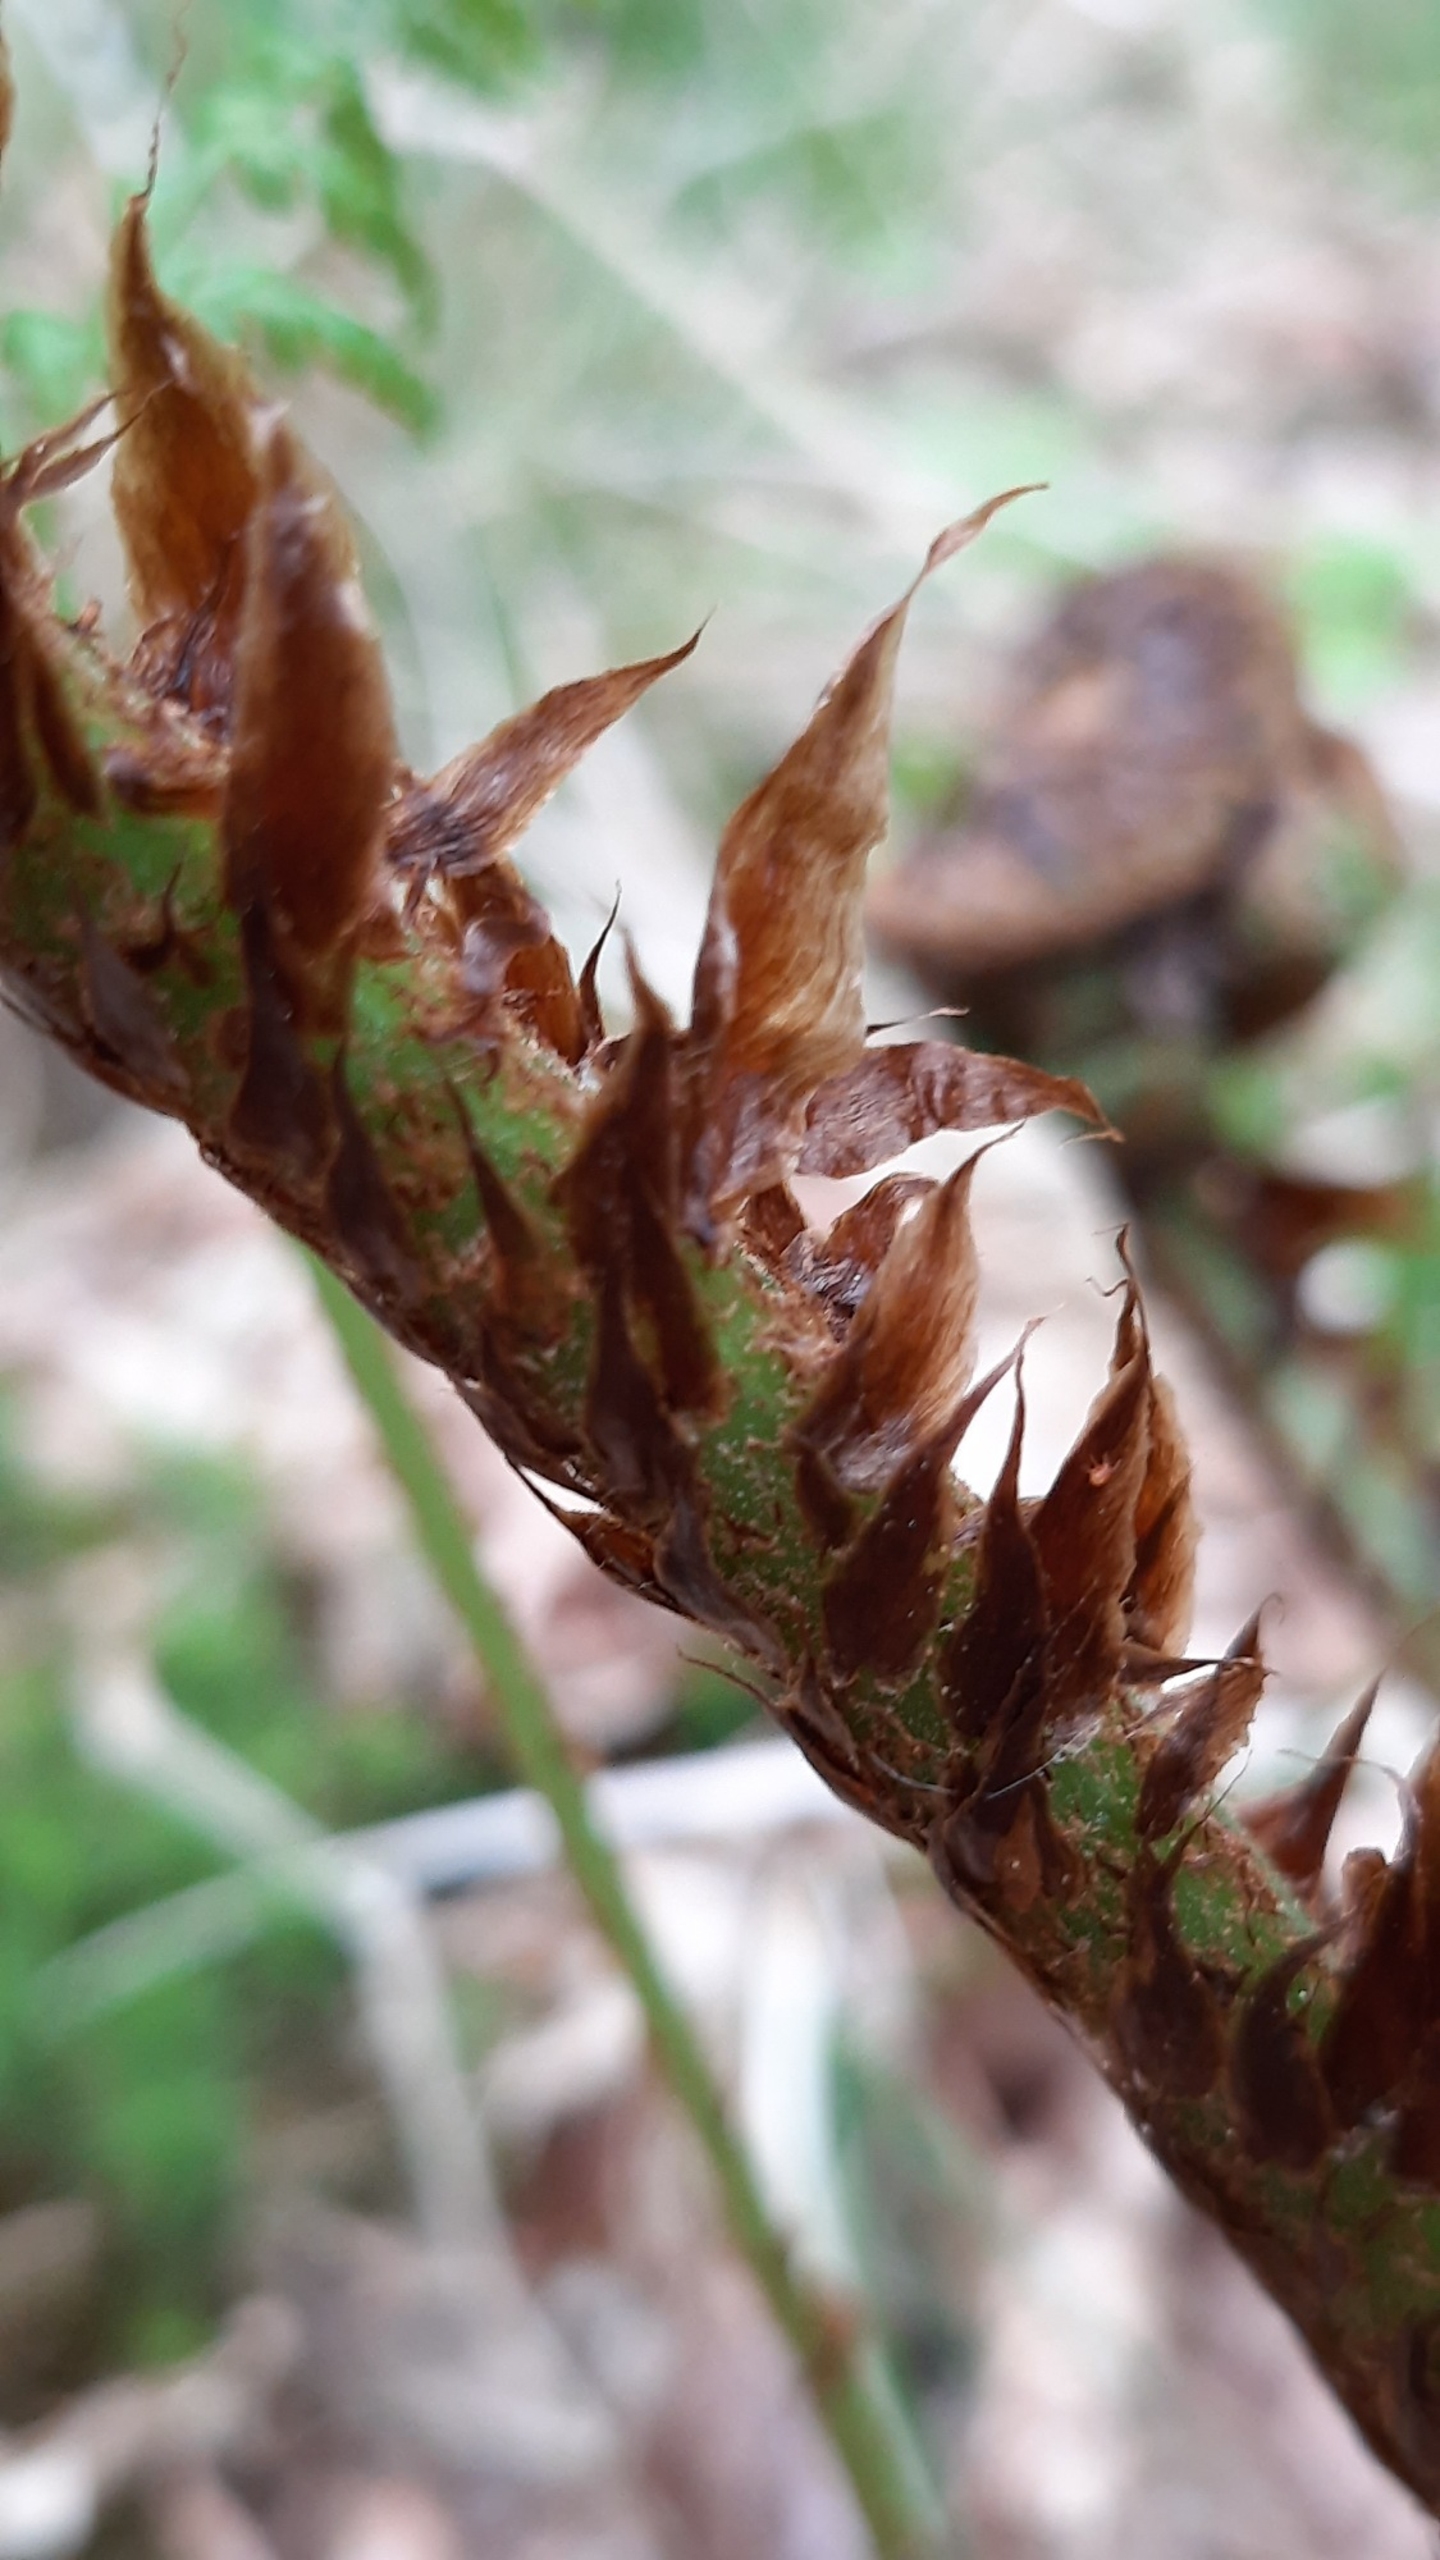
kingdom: Plantae
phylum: Tracheophyta
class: Polypodiopsida
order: Polypodiales
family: Dryopteridaceae
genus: Dryopteris
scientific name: Dryopteris dilatata
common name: Bredbladet mangeløv
